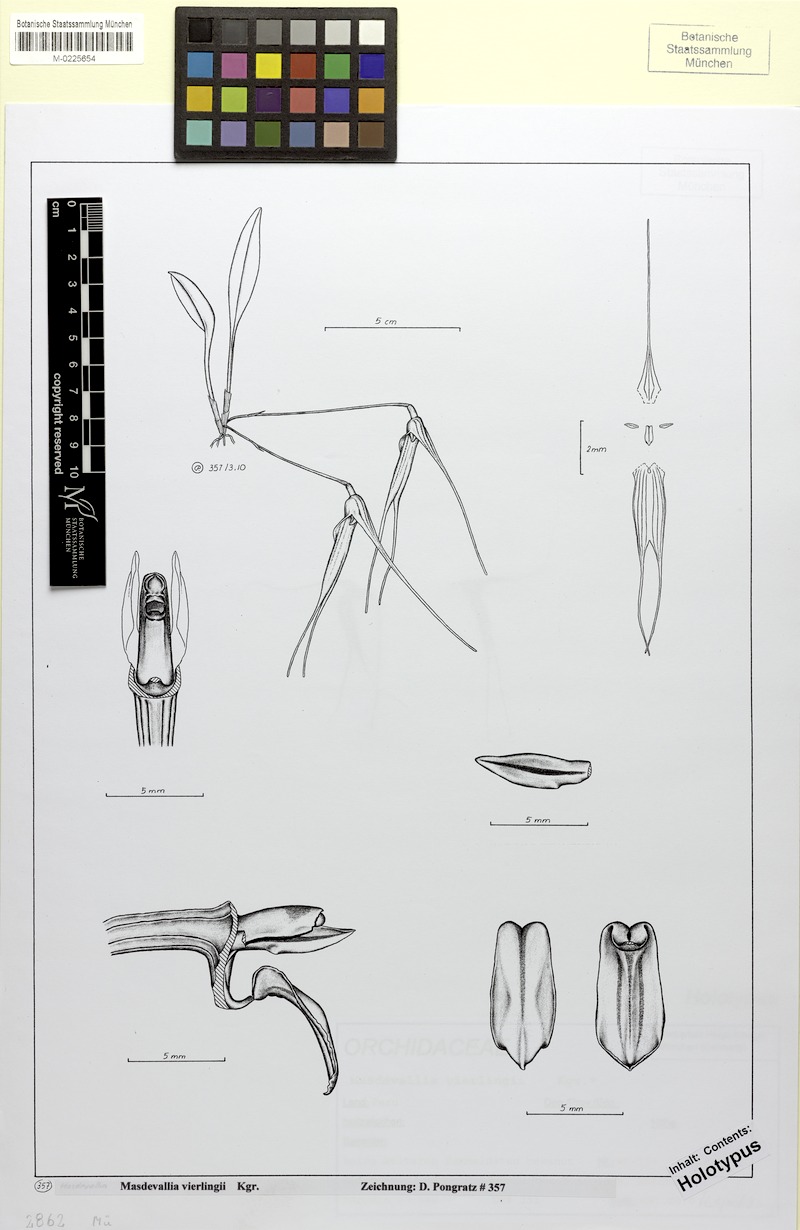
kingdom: Plantae
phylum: Tracheophyta
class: Liliopsida
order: Asparagales
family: Orchidaceae
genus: Masdevallia
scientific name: Masdevallia vierlingii
